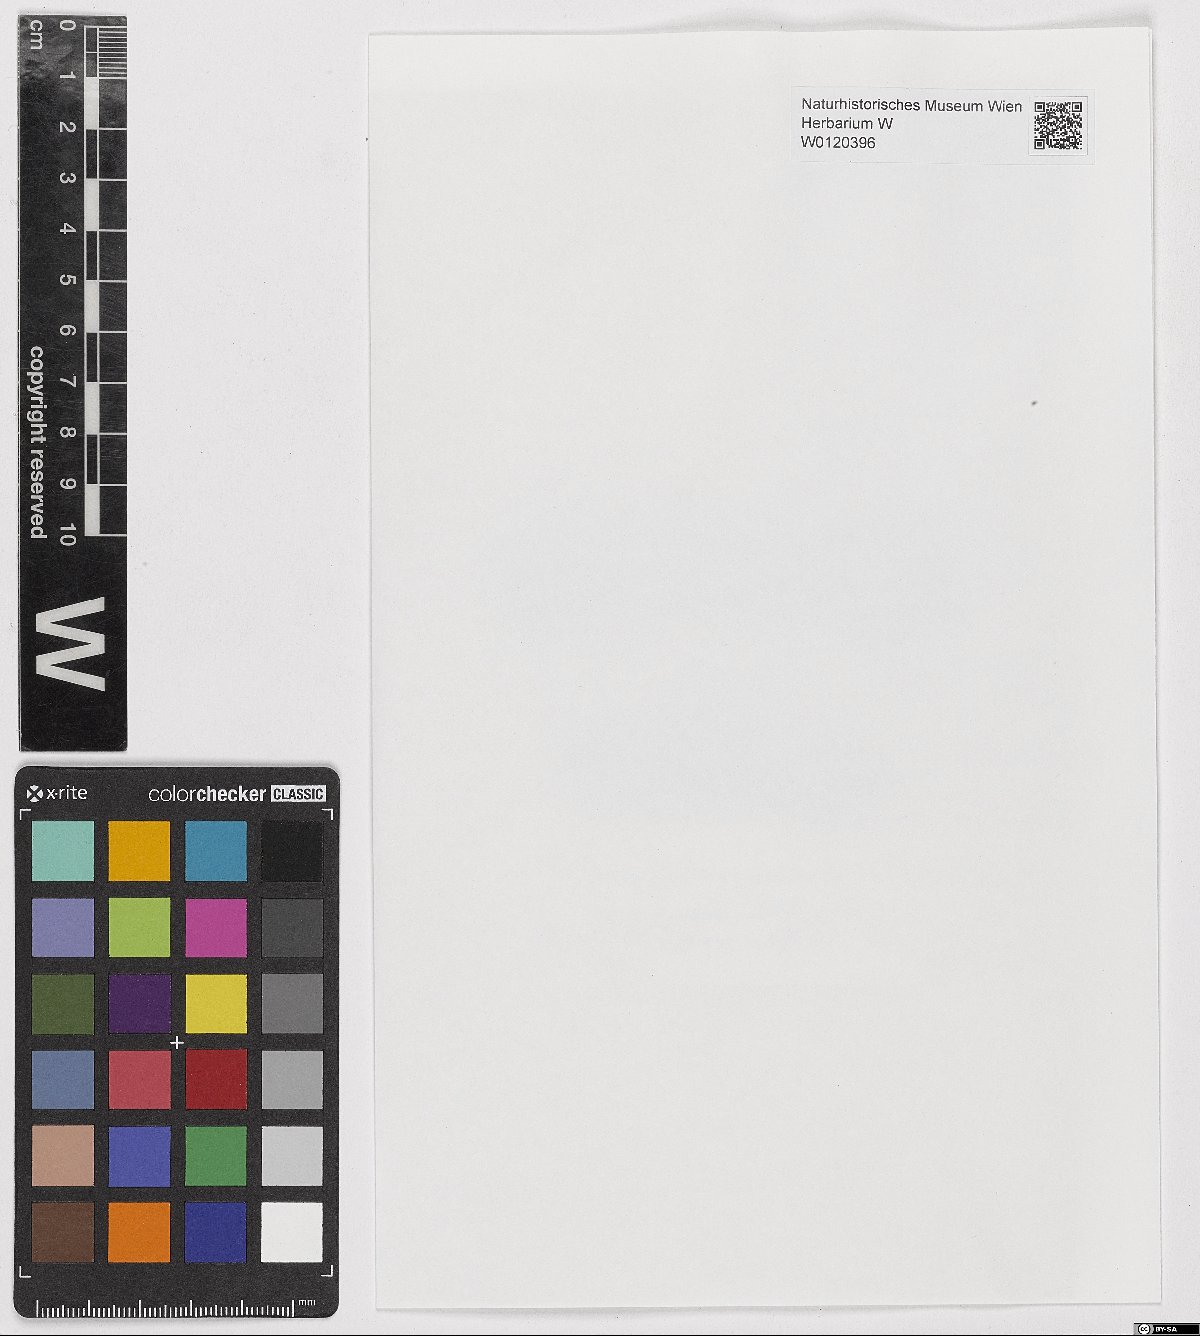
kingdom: Plantae
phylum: Bryophyta
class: Bryopsida
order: Hypnales
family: Plagiotheciaceae
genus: Isopterygiella
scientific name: Isopterygiella pulchella
